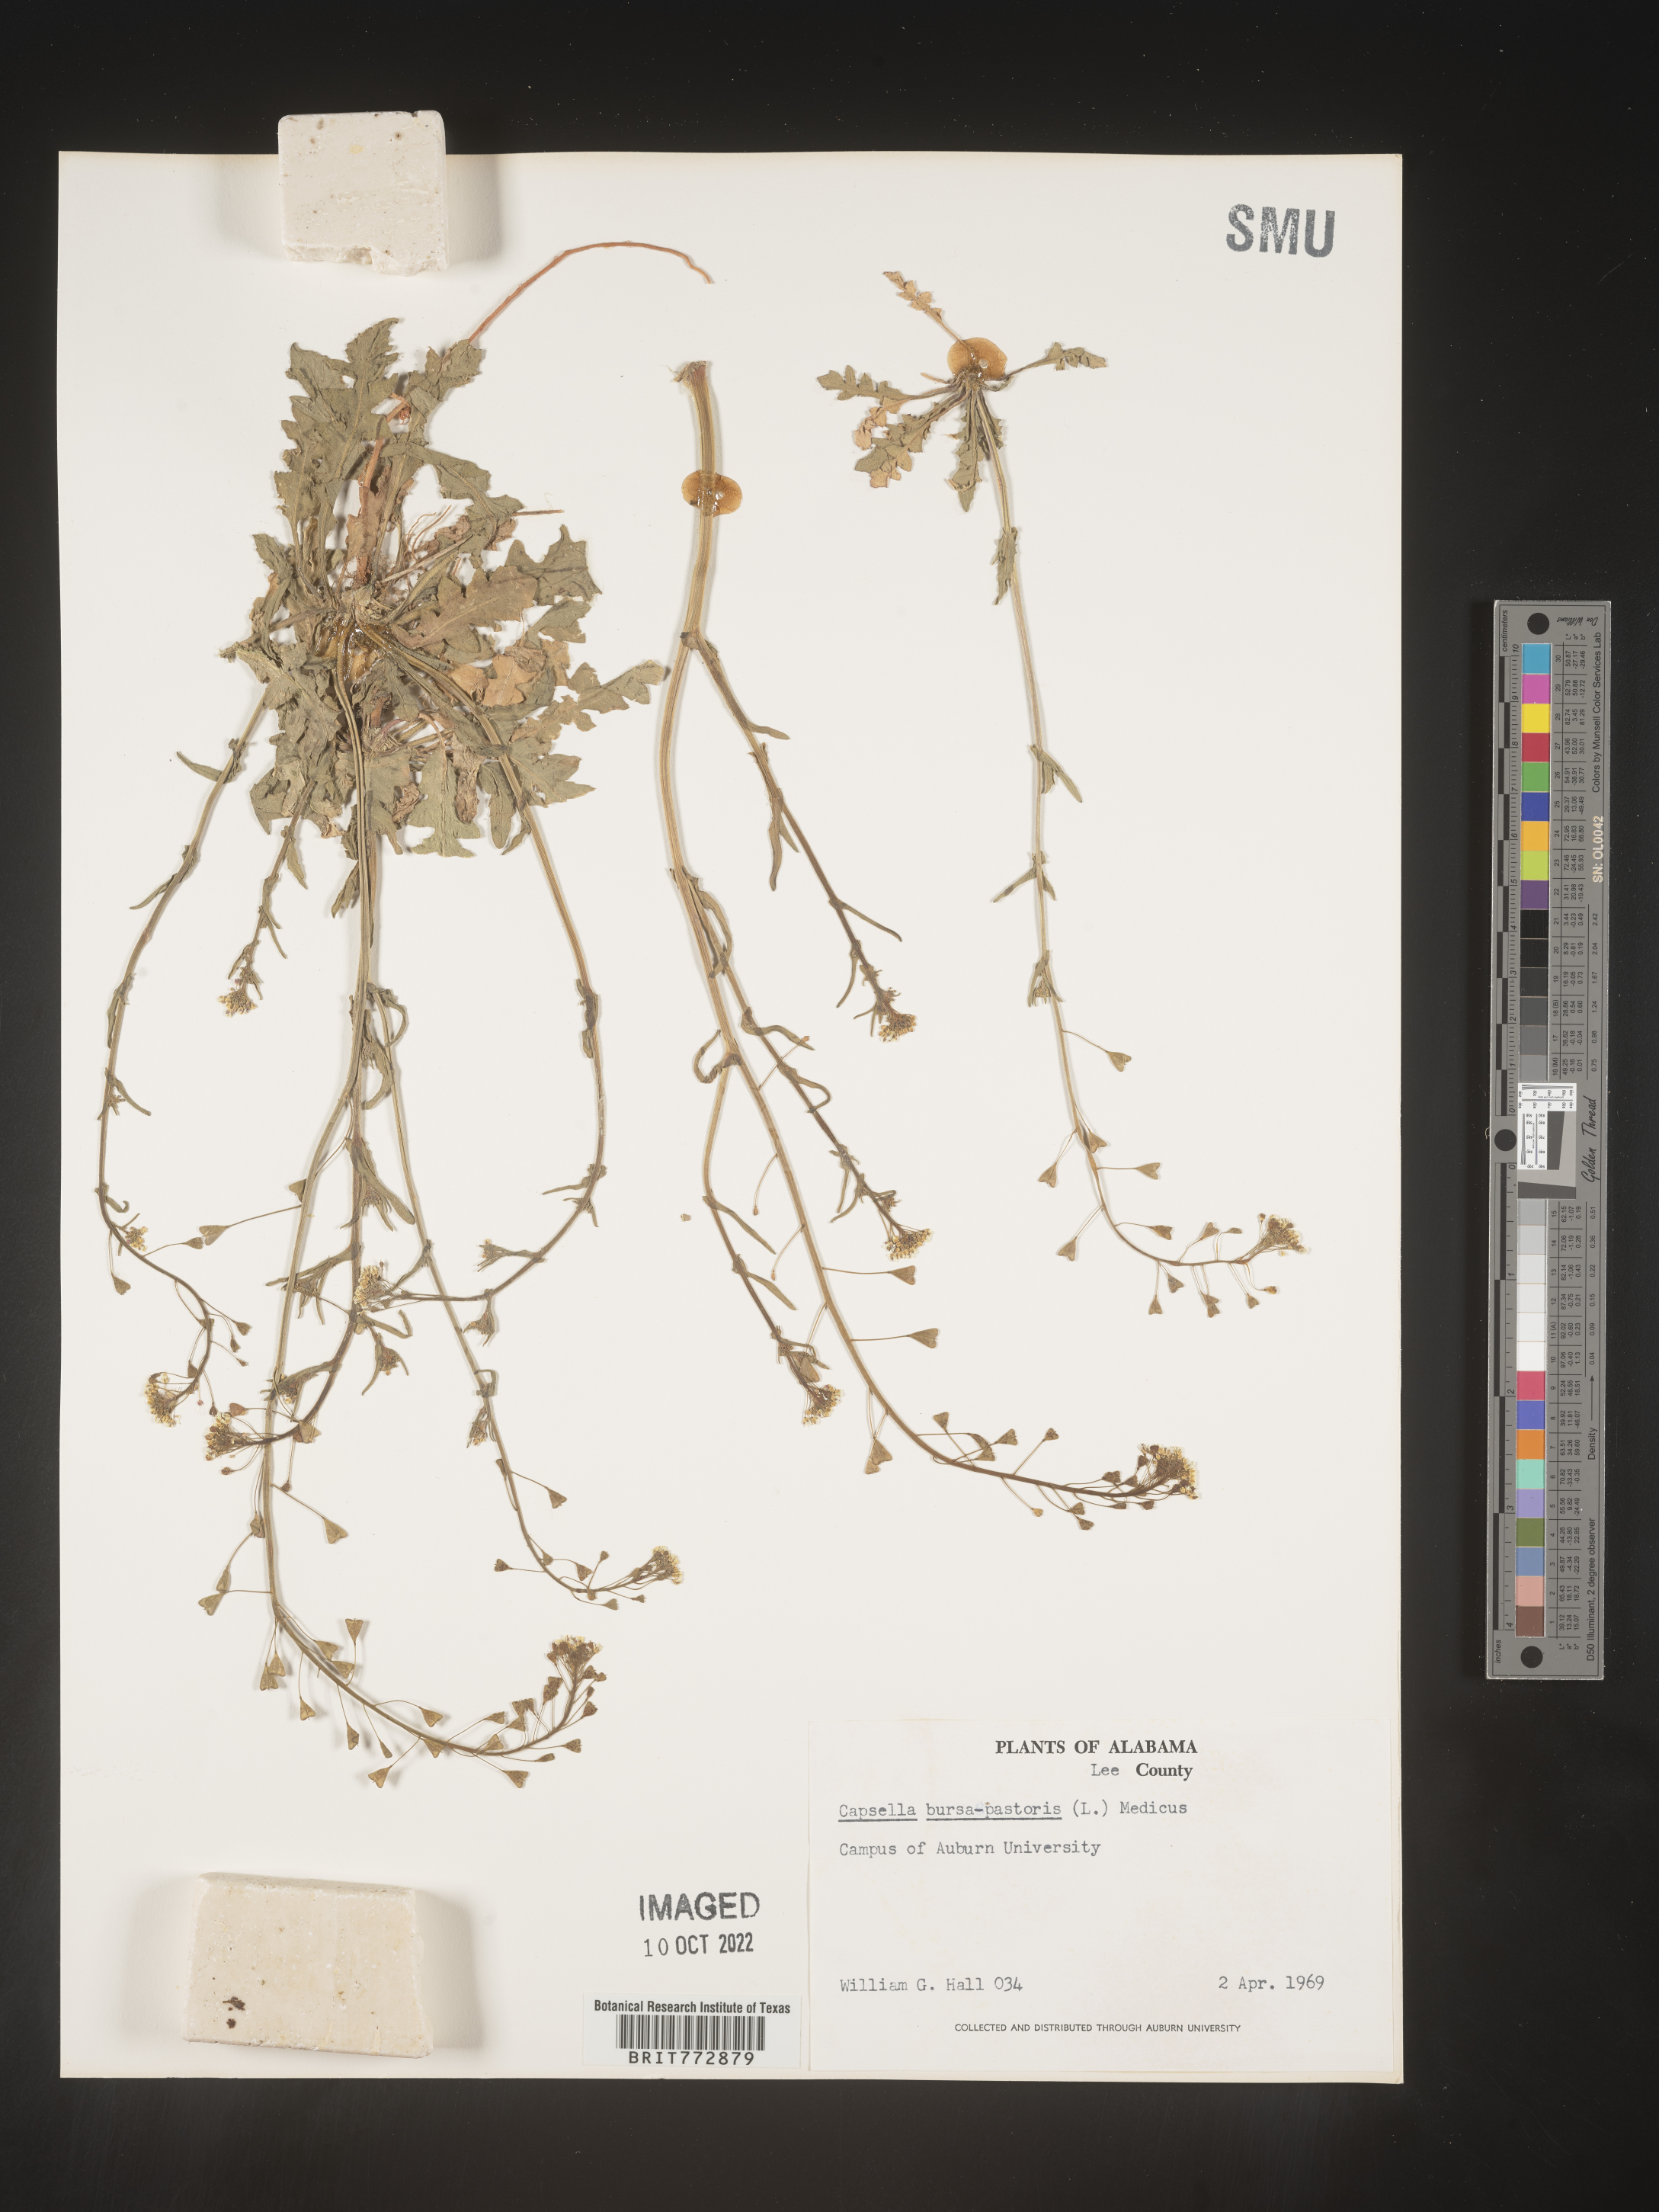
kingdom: Plantae
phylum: Tracheophyta
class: Magnoliopsida
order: Brassicales
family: Brassicaceae
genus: Capsella
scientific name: Capsella bursa-pastoris
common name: Shepherd's purse
